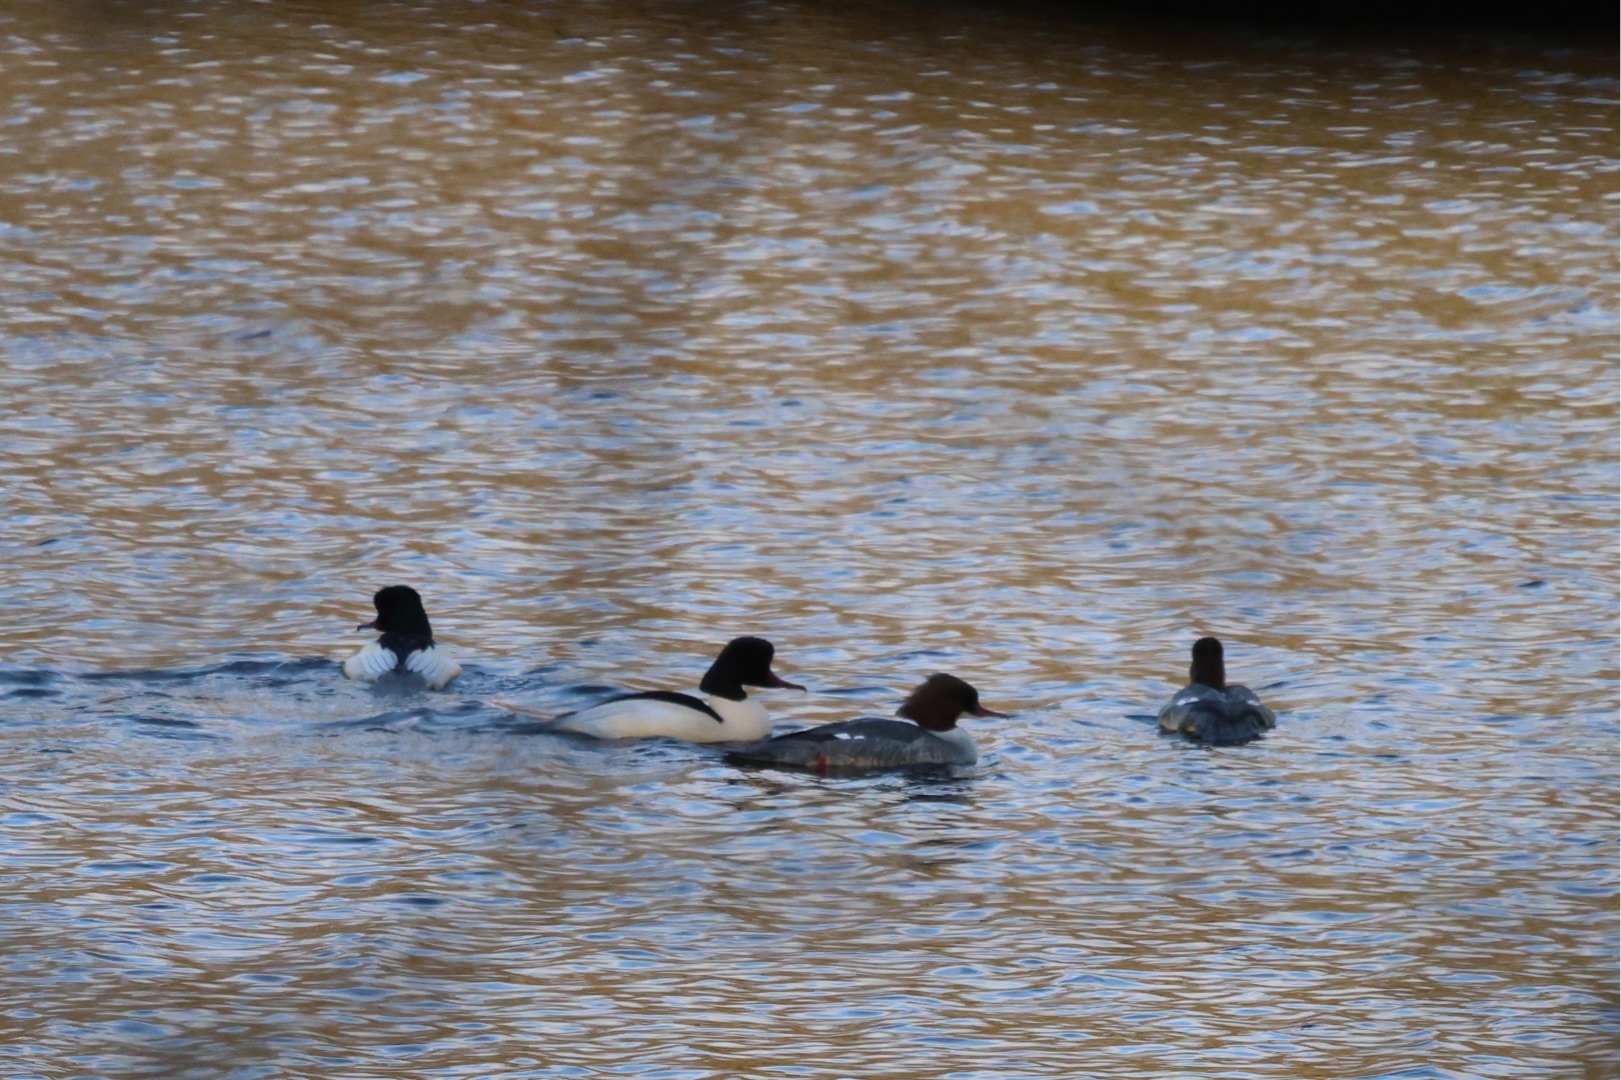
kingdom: Animalia
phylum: Chordata
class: Aves
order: Anseriformes
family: Anatidae
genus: Mergus
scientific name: Mergus merganser
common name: Stor skallesluger
